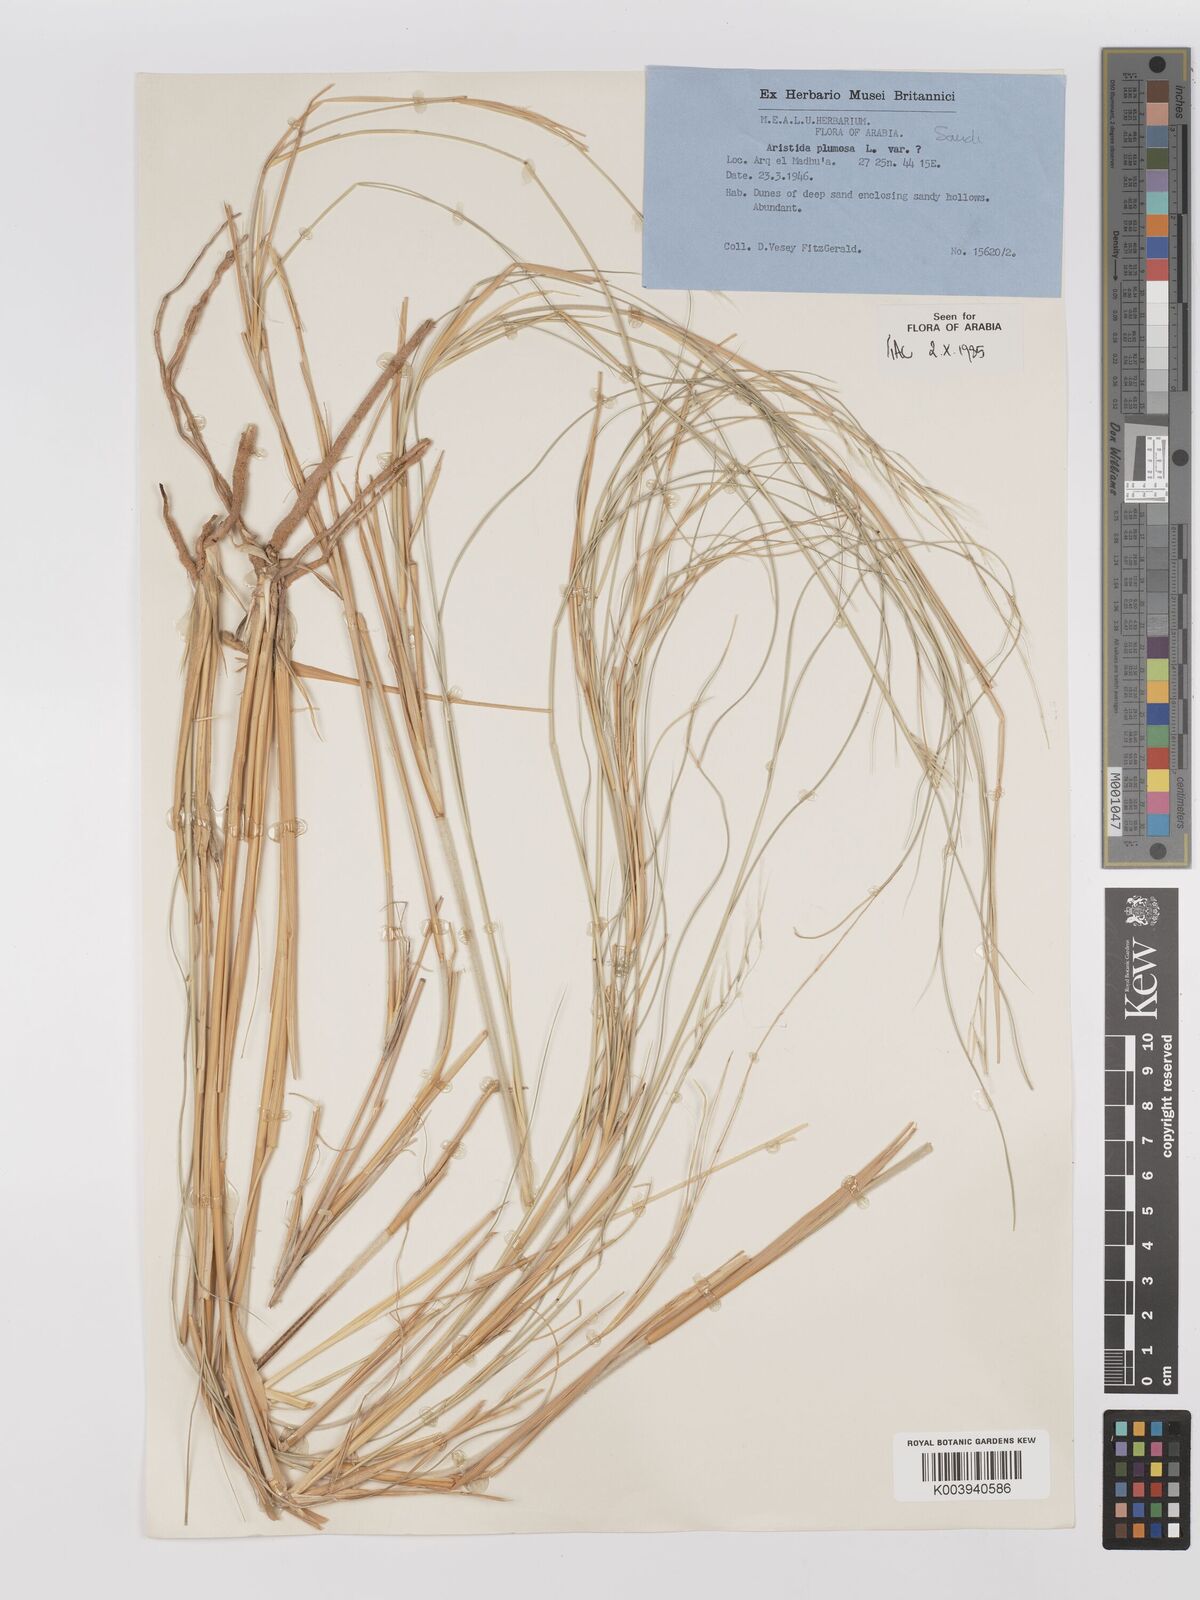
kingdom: Plantae
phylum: Tracheophyta
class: Liliopsida
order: Poales
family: Poaceae
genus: Stipagrostis
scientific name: Stipagrostis plumosa
